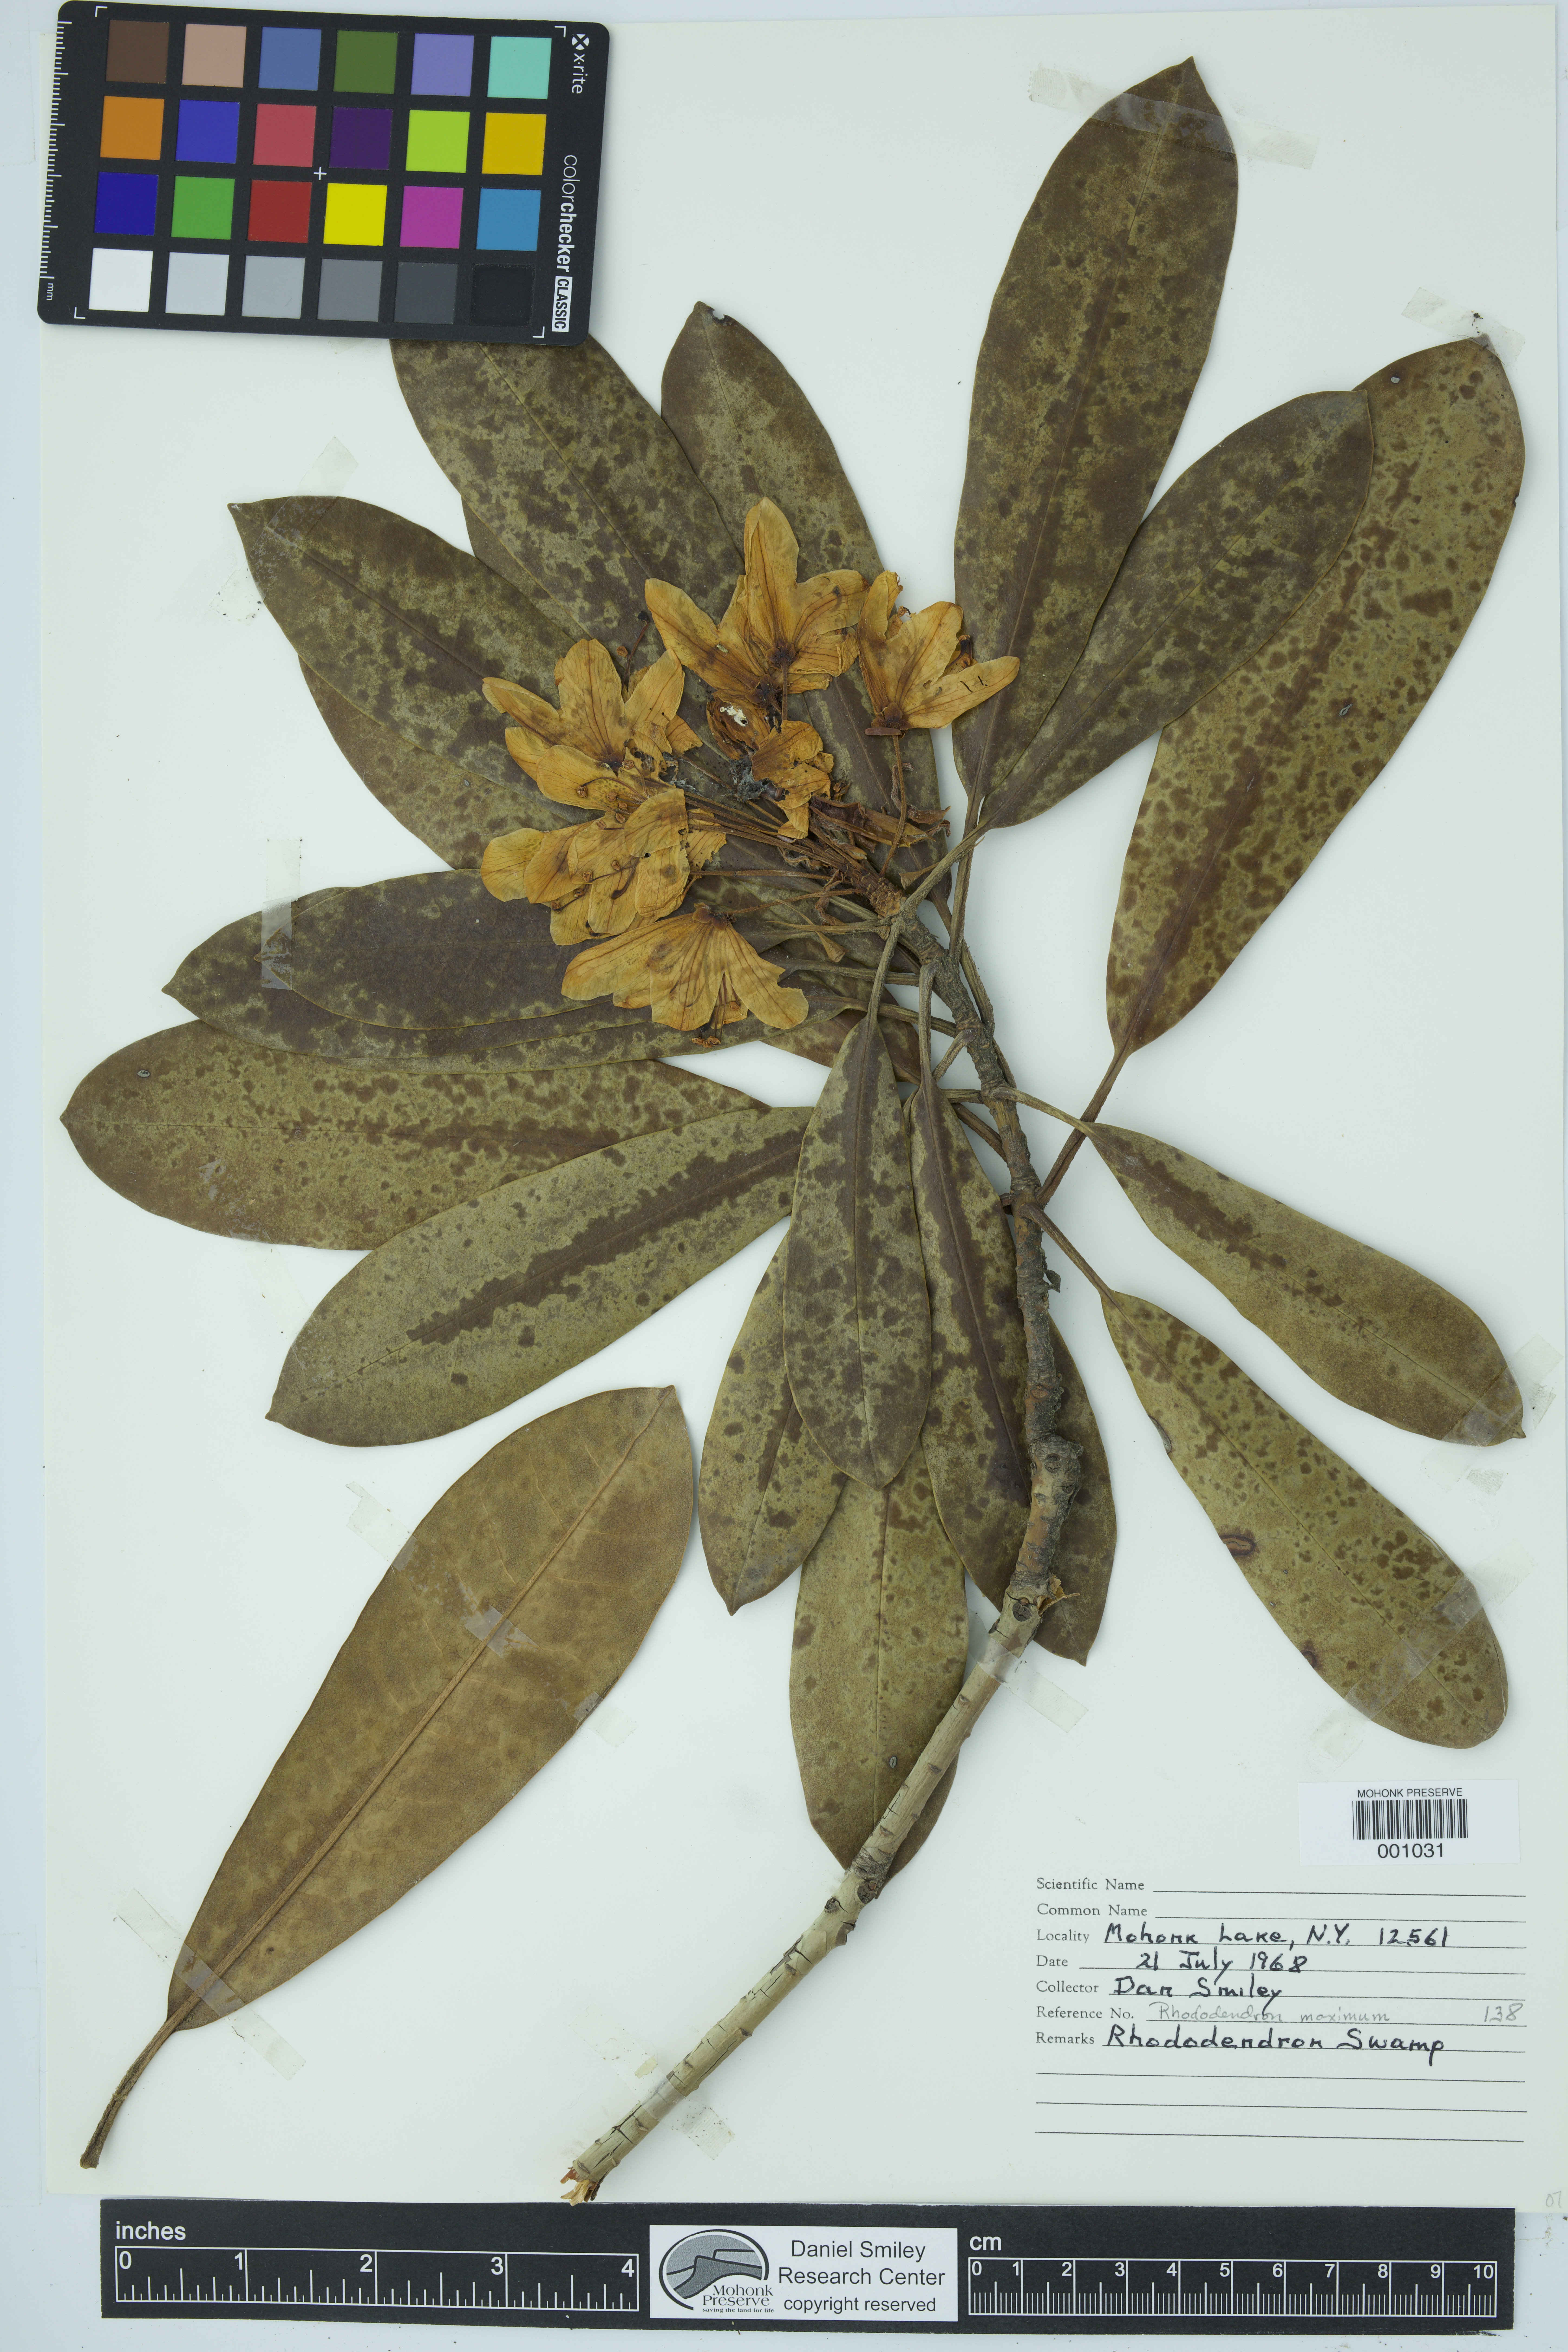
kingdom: Plantae
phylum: Tracheophyta
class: Magnoliopsida
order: Ericales
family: Ericaceae
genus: Rhododendron
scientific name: Rhododendron maximum
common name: Great rhododendron
